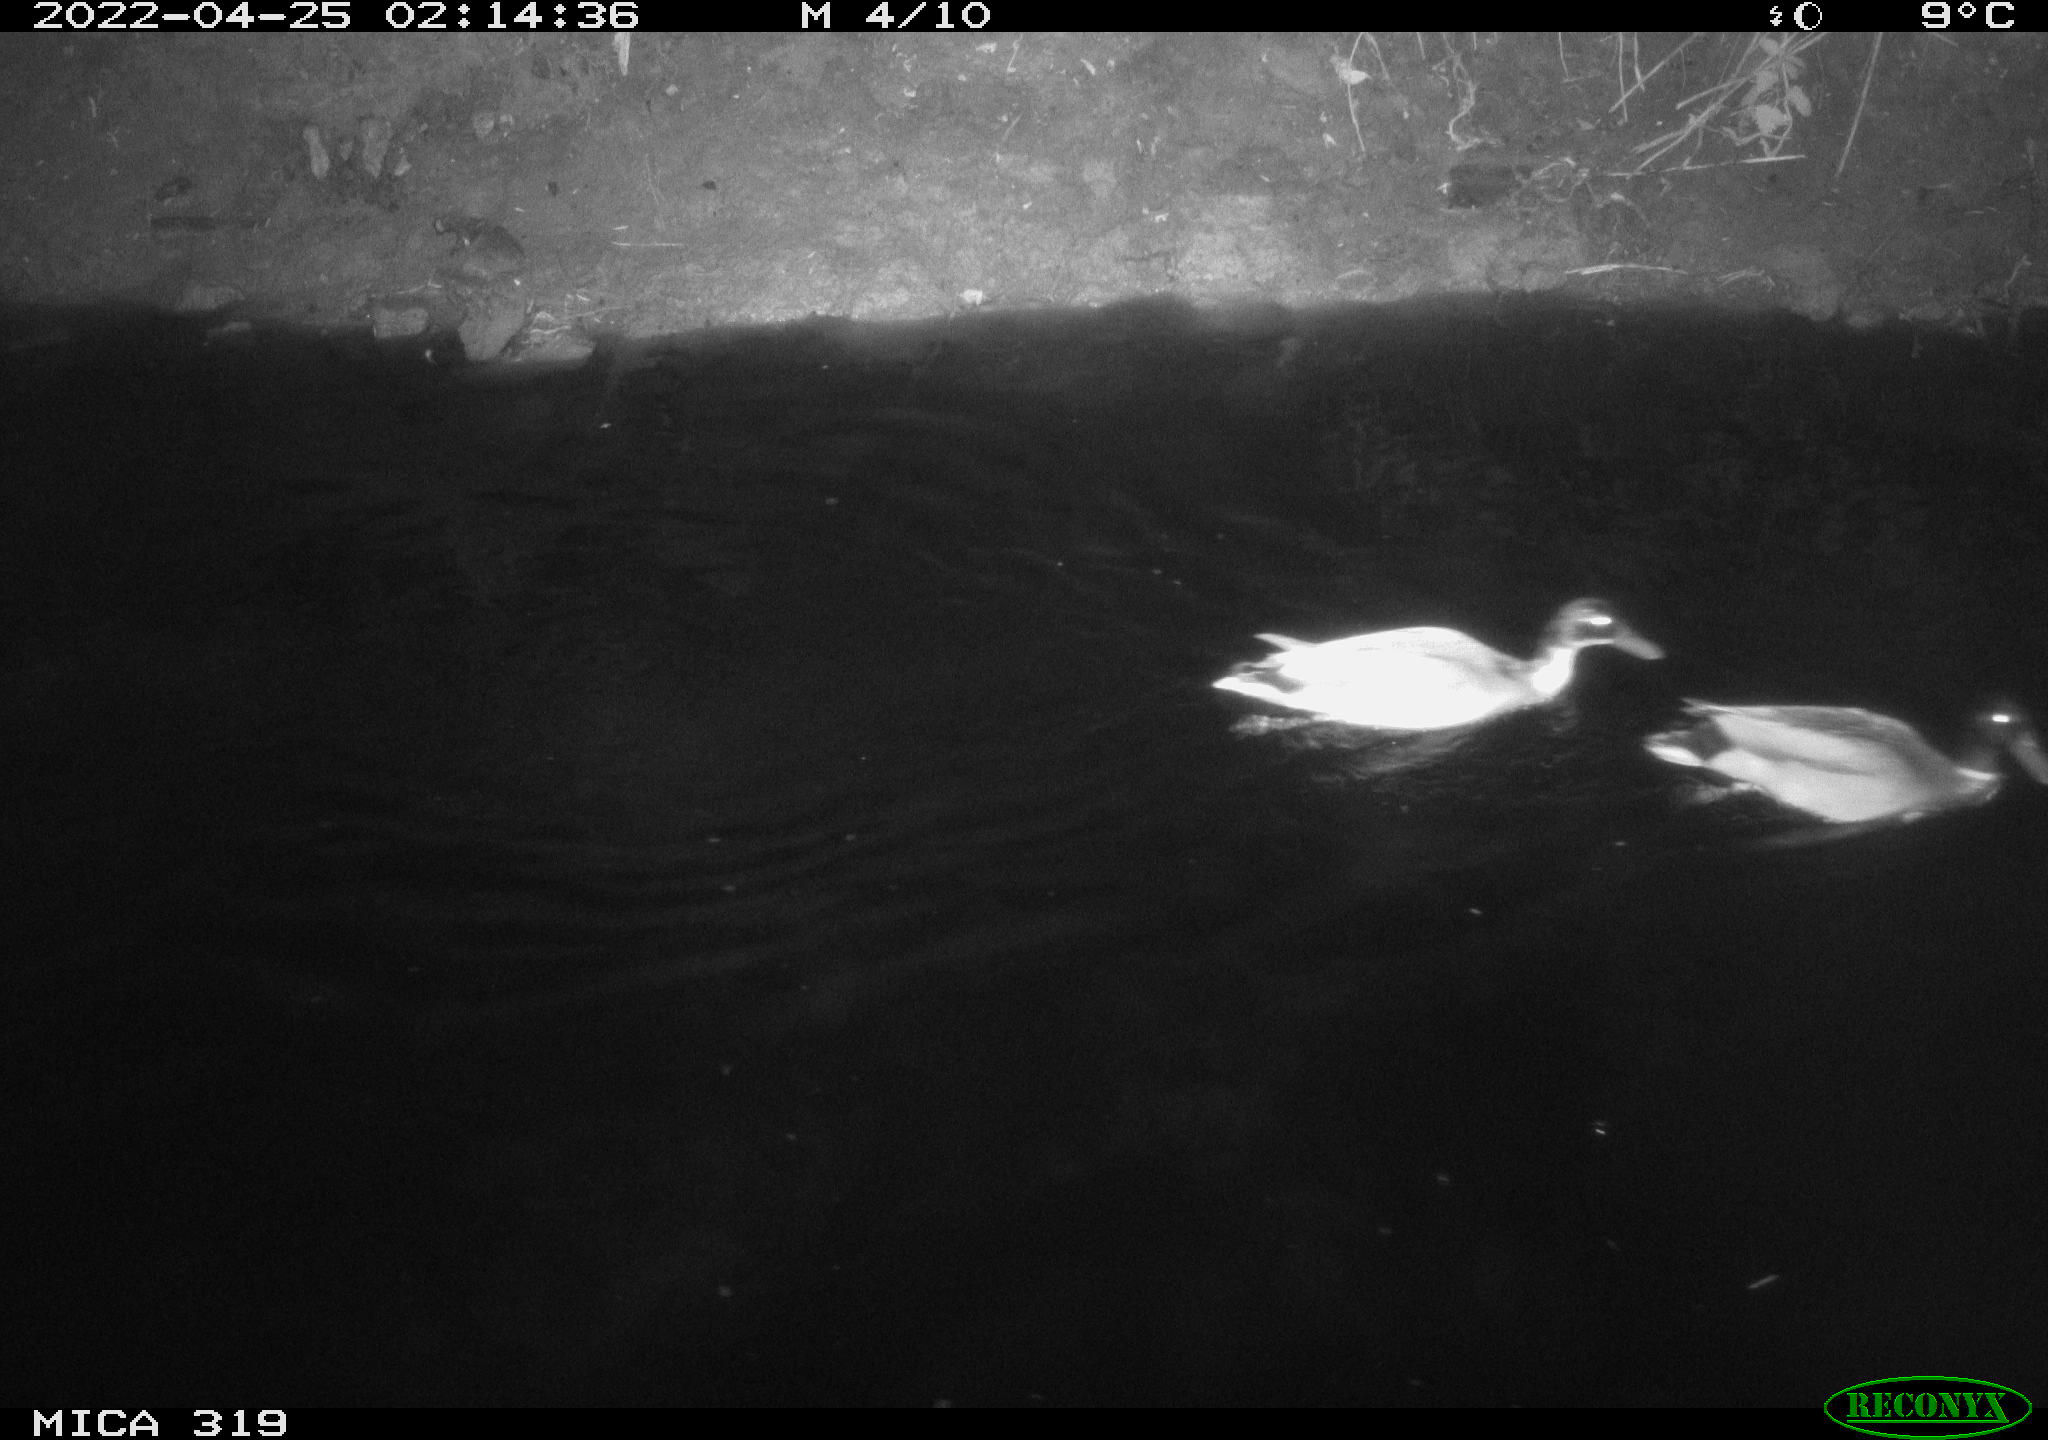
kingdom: Animalia
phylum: Chordata
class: Aves
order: Anseriformes
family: Anatidae
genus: Anas
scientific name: Anas platyrhynchos
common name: Mallard
